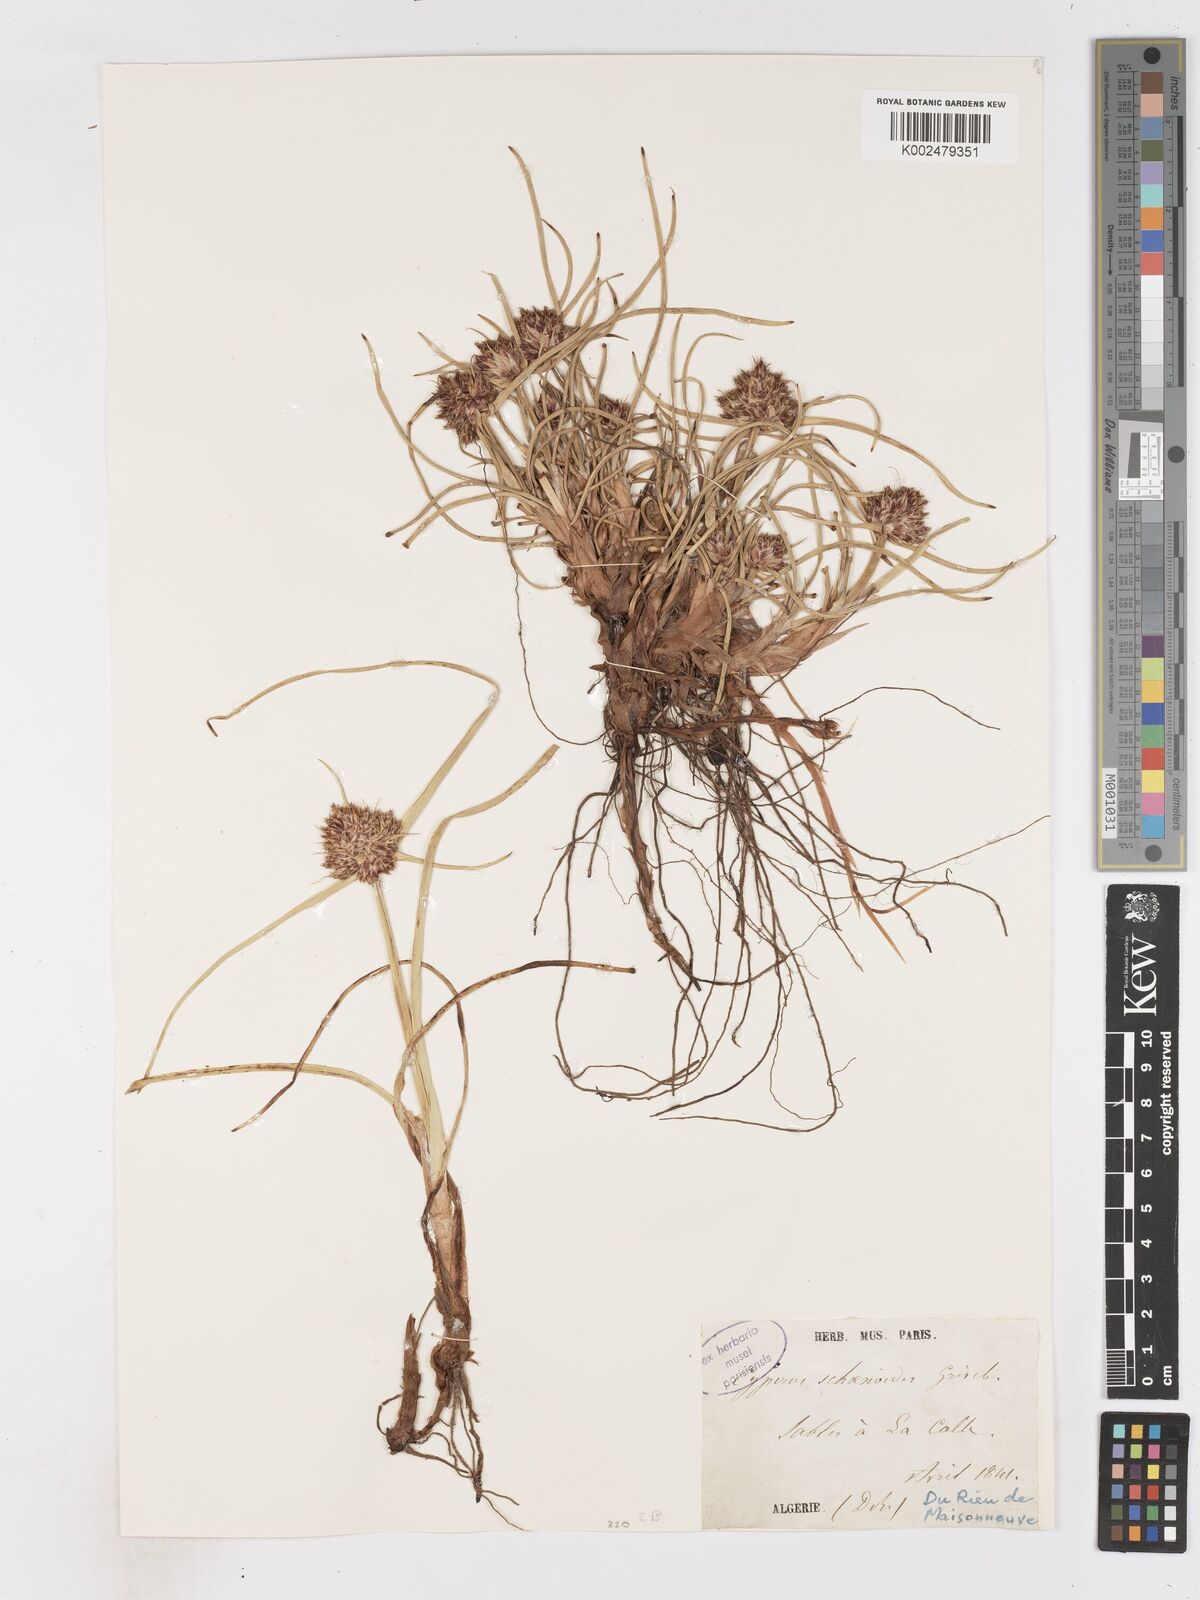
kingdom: Plantae
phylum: Tracheophyta
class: Liliopsida
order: Poales
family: Cyperaceae
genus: Cyperus
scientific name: Cyperus capitatus
